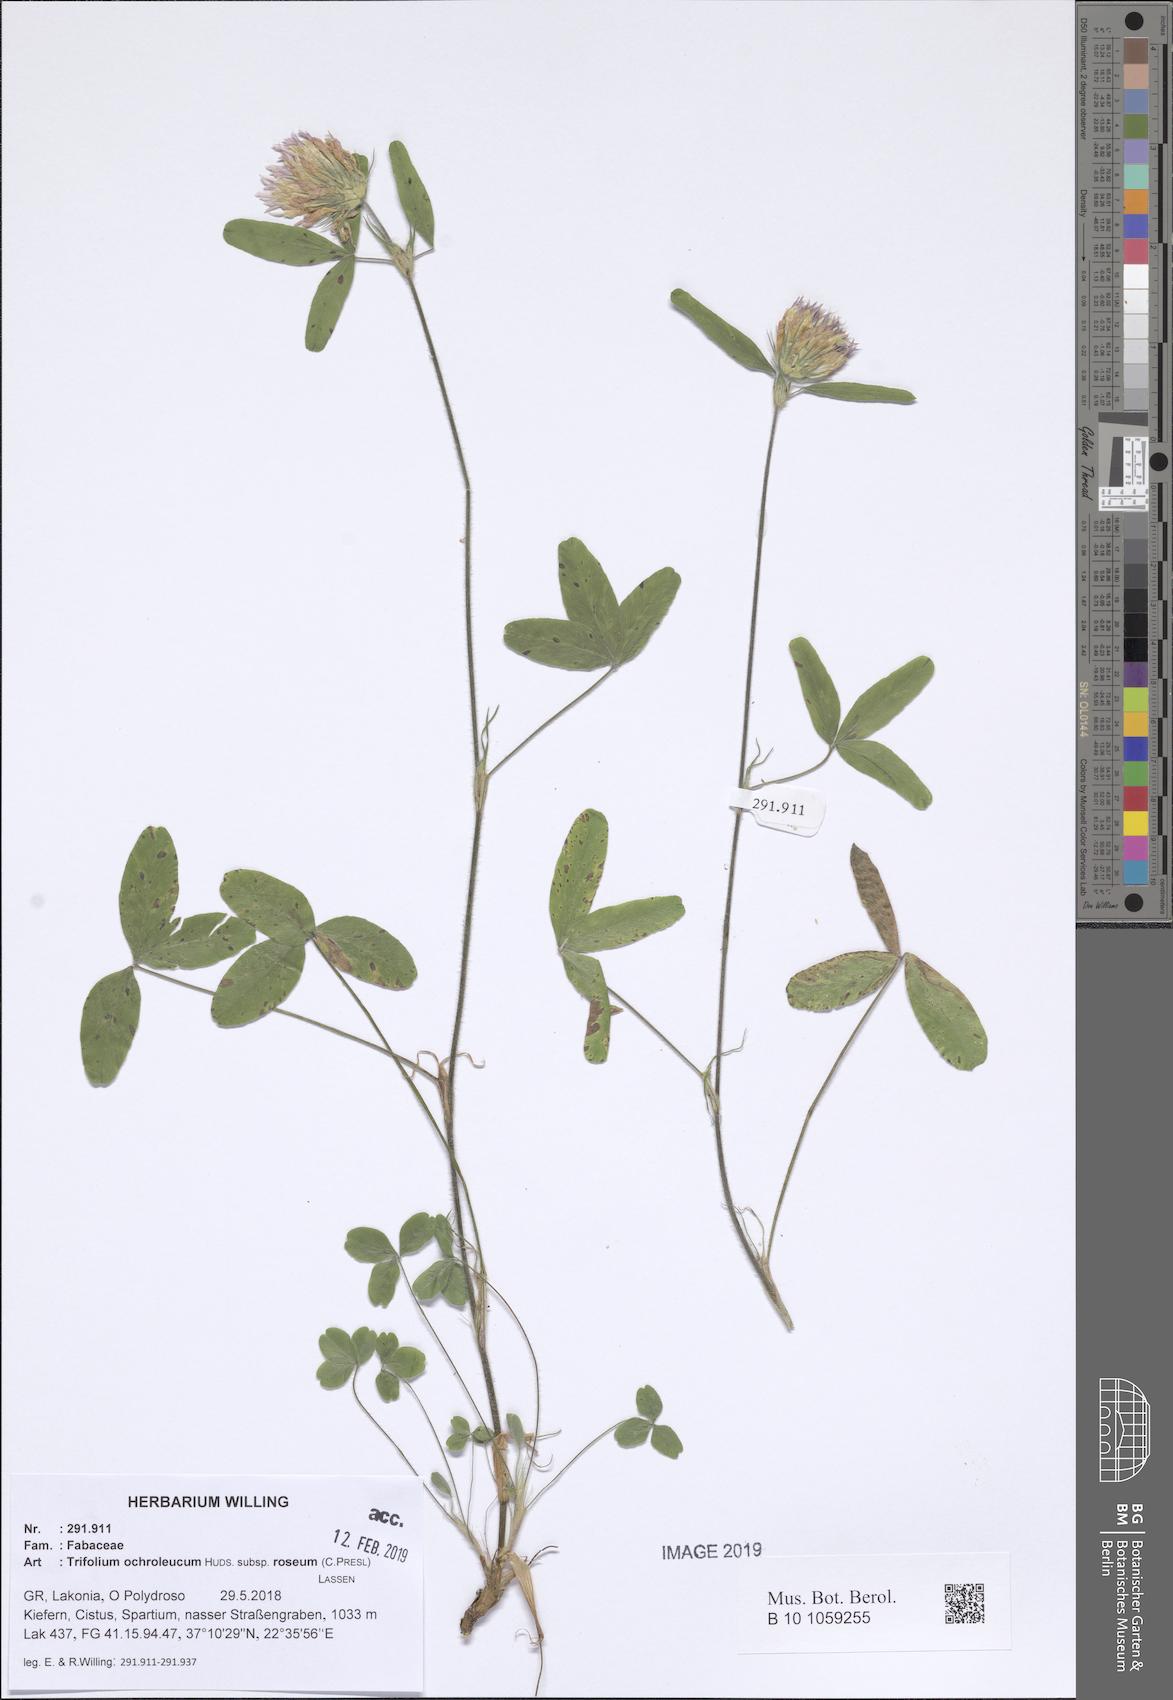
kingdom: Plantae
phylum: Tracheophyta
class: Magnoliopsida
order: Fabales
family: Fabaceae
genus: Trifolium
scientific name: Trifolium ochroleucon
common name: Sulphur clover
